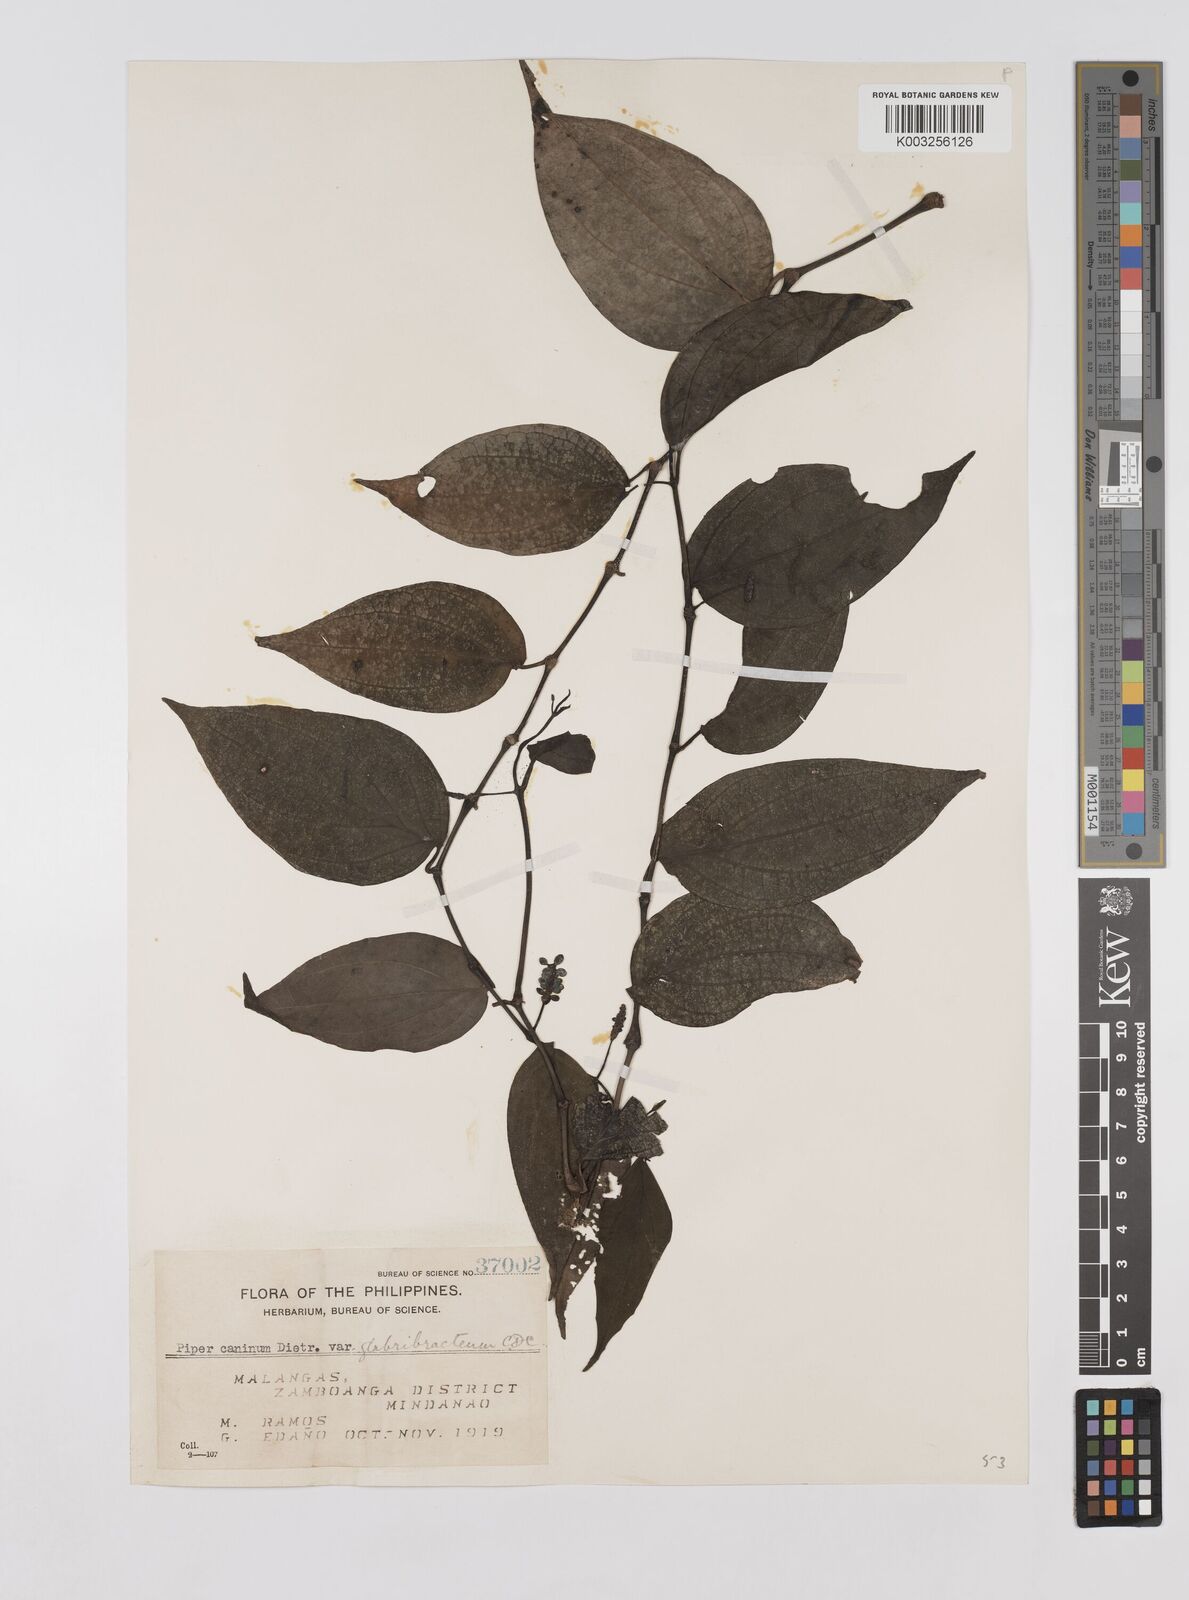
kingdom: Plantae
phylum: Tracheophyta
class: Magnoliopsida
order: Piperales
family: Piperaceae
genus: Piper
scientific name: Piper lanatum
